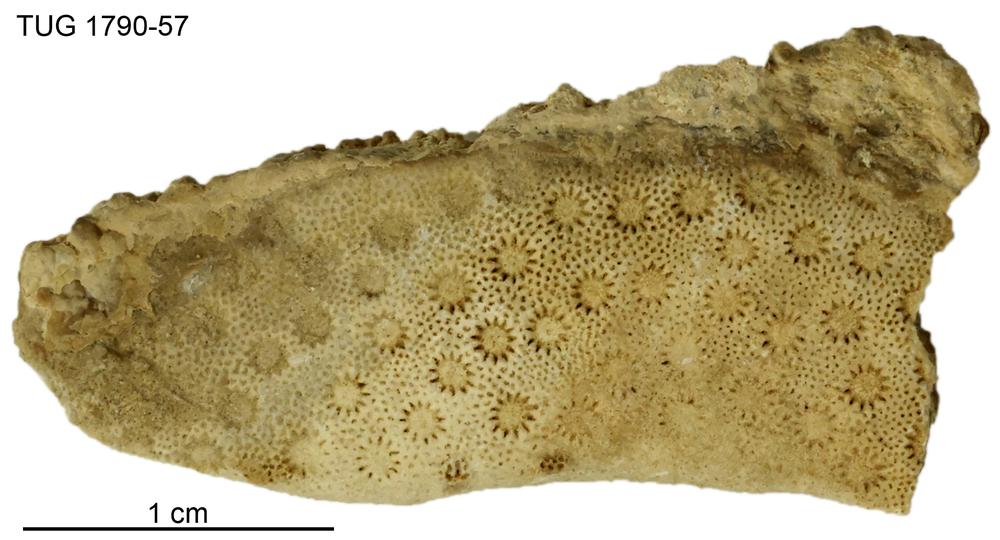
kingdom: Animalia
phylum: Cnidaria
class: Anthozoa
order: Heliolitina
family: Heliolitidae
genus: Heliolites
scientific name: Heliolites
